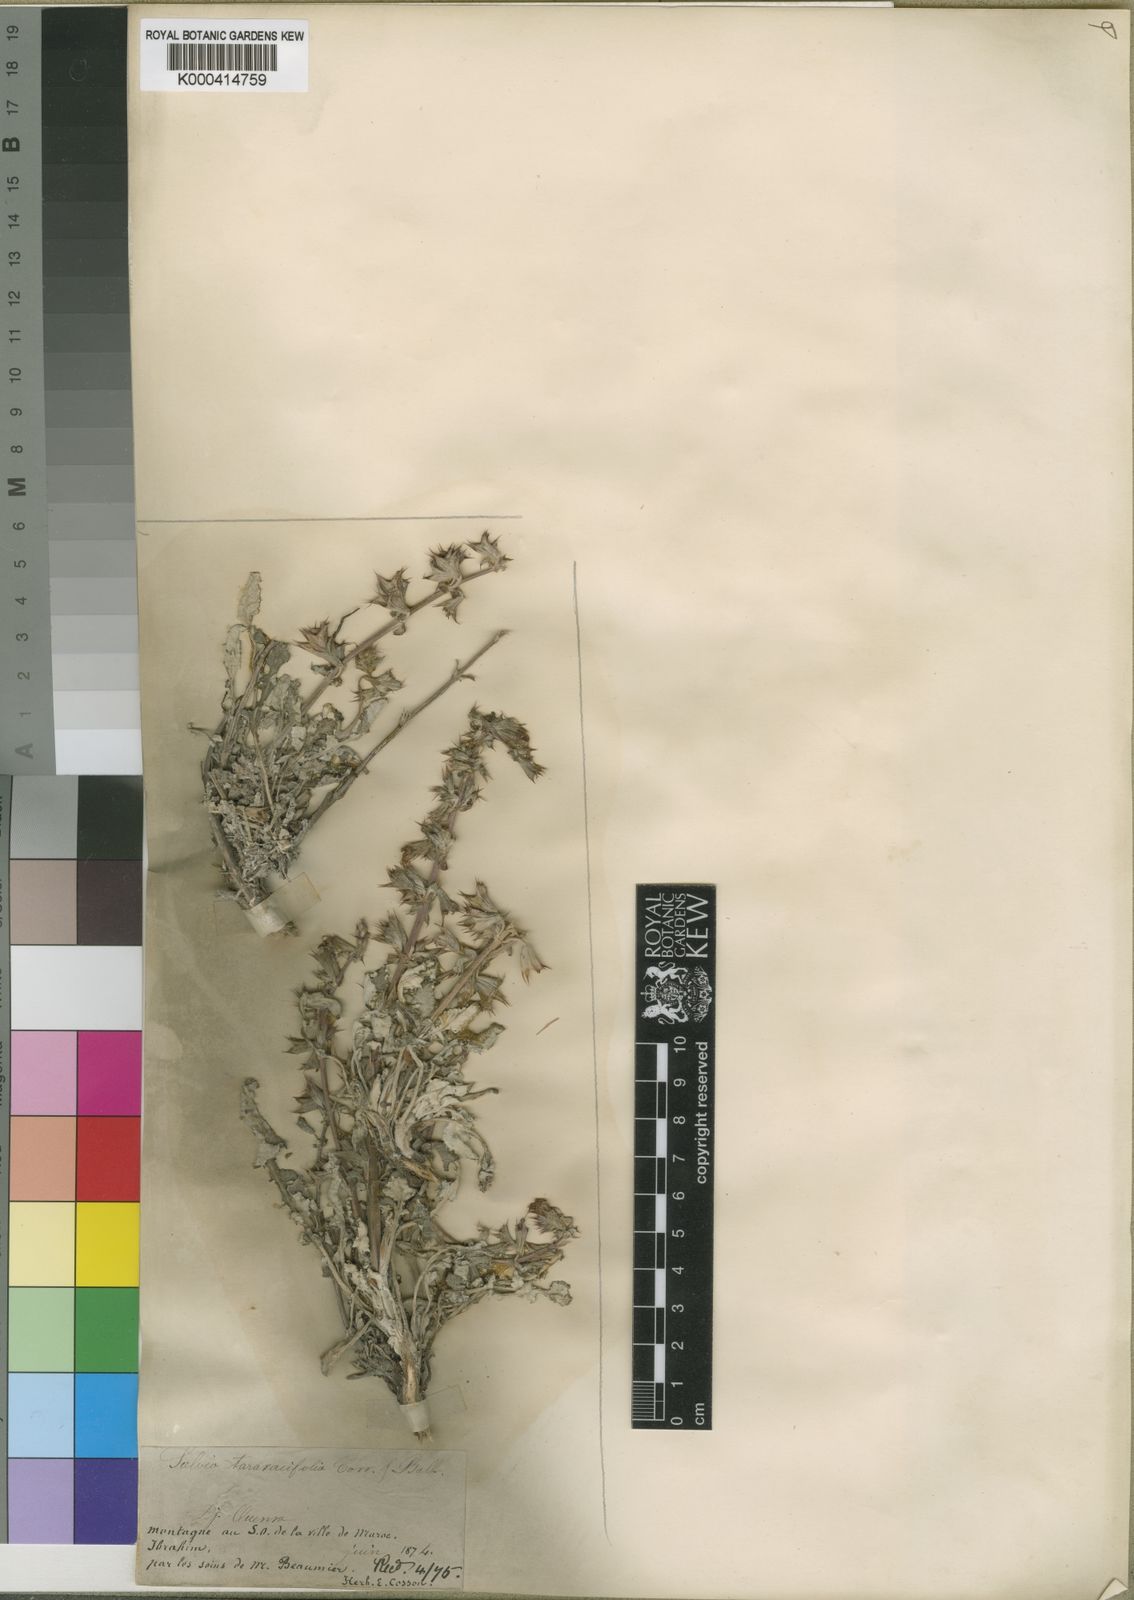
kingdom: Plantae
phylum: Tracheophyta
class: Magnoliopsida
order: Lamiales
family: Lamiaceae
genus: Salvia
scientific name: Salvia
